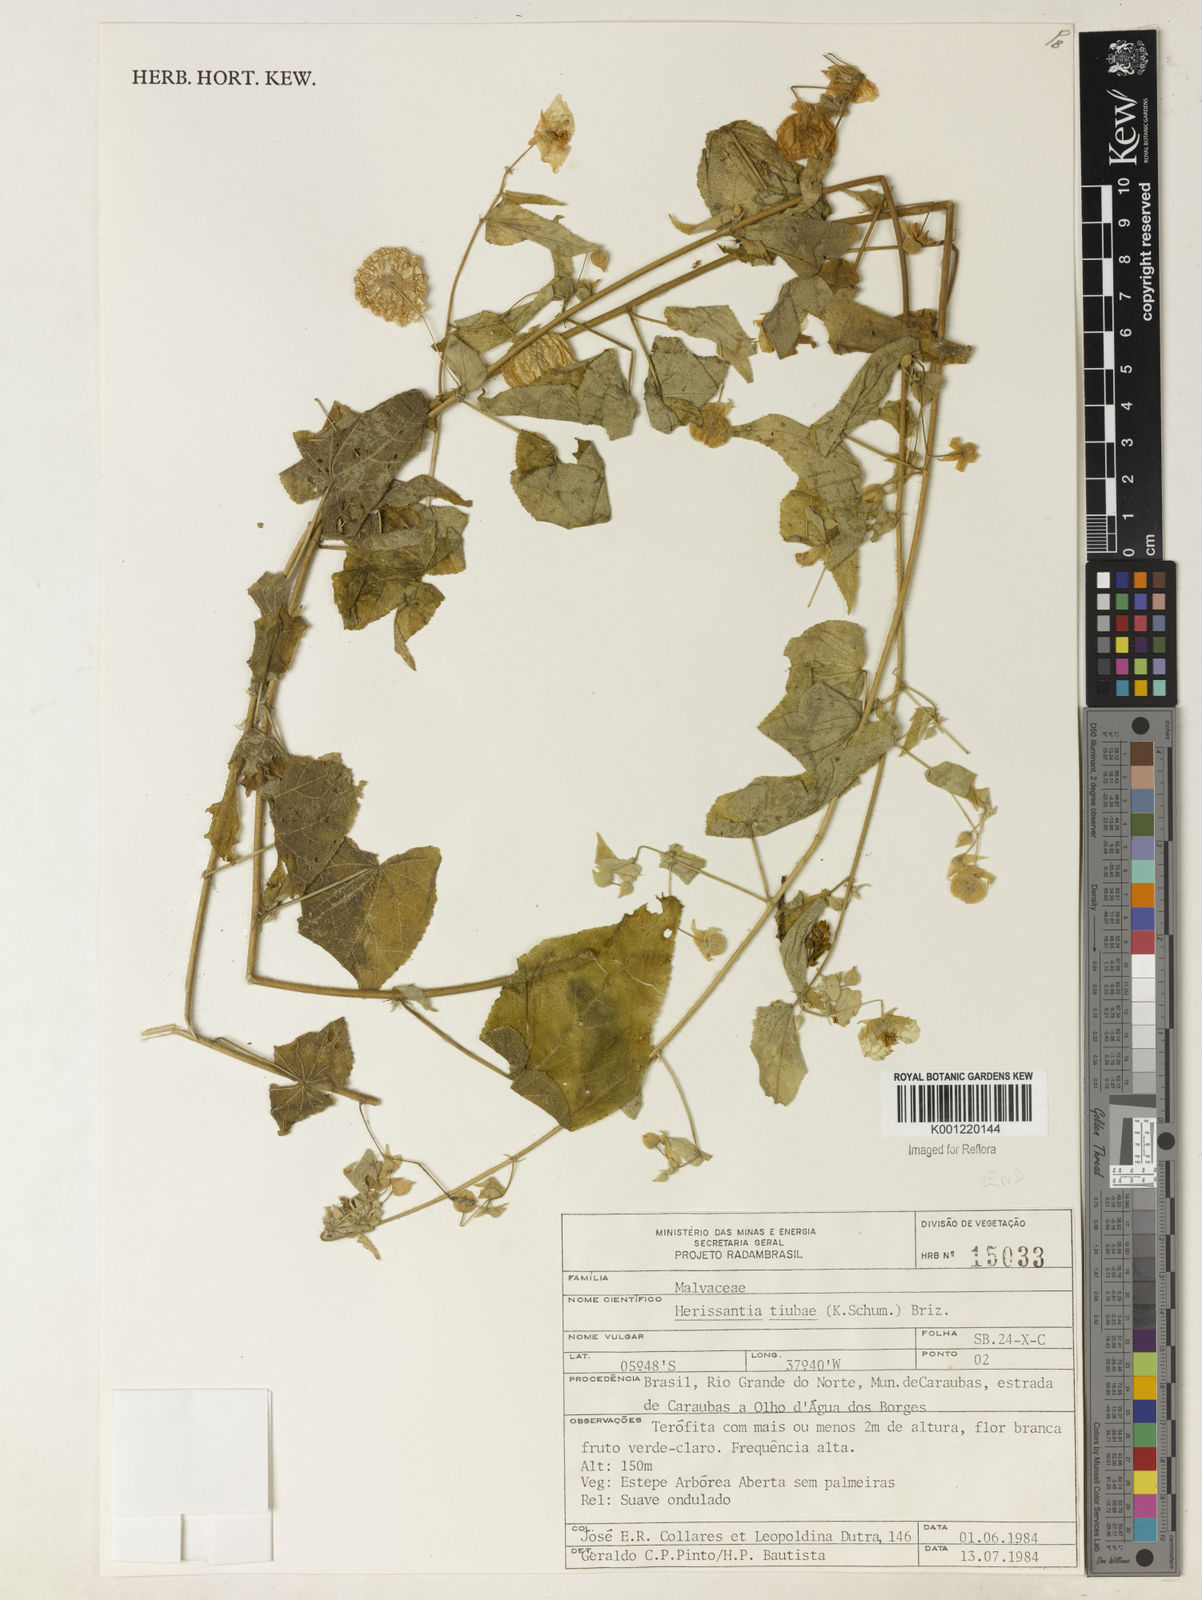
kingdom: Plantae
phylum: Tracheophyta
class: Magnoliopsida
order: Malvales
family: Malvaceae
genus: Herissantia
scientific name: Herissantia tiubae
